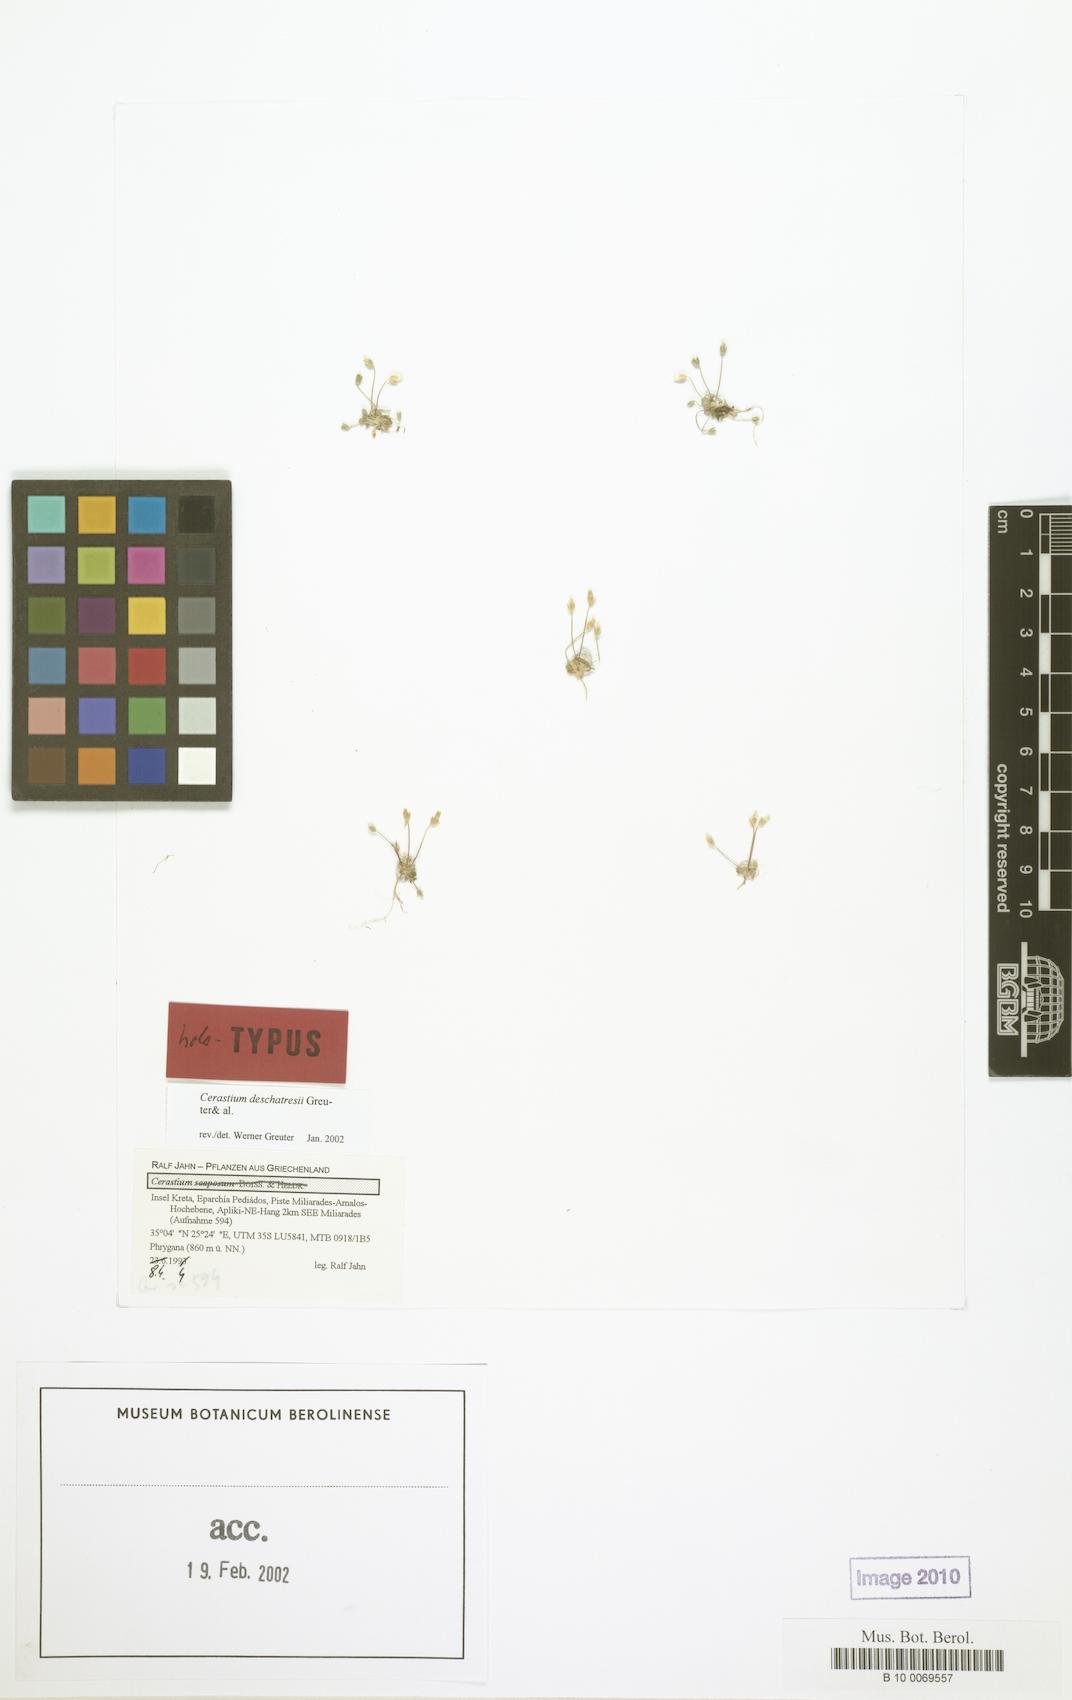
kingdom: Plantae
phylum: Tracheophyta
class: Magnoliopsida
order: Caryophyllales
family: Caryophyllaceae
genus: Cerastium
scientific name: Cerastium deschatresii
